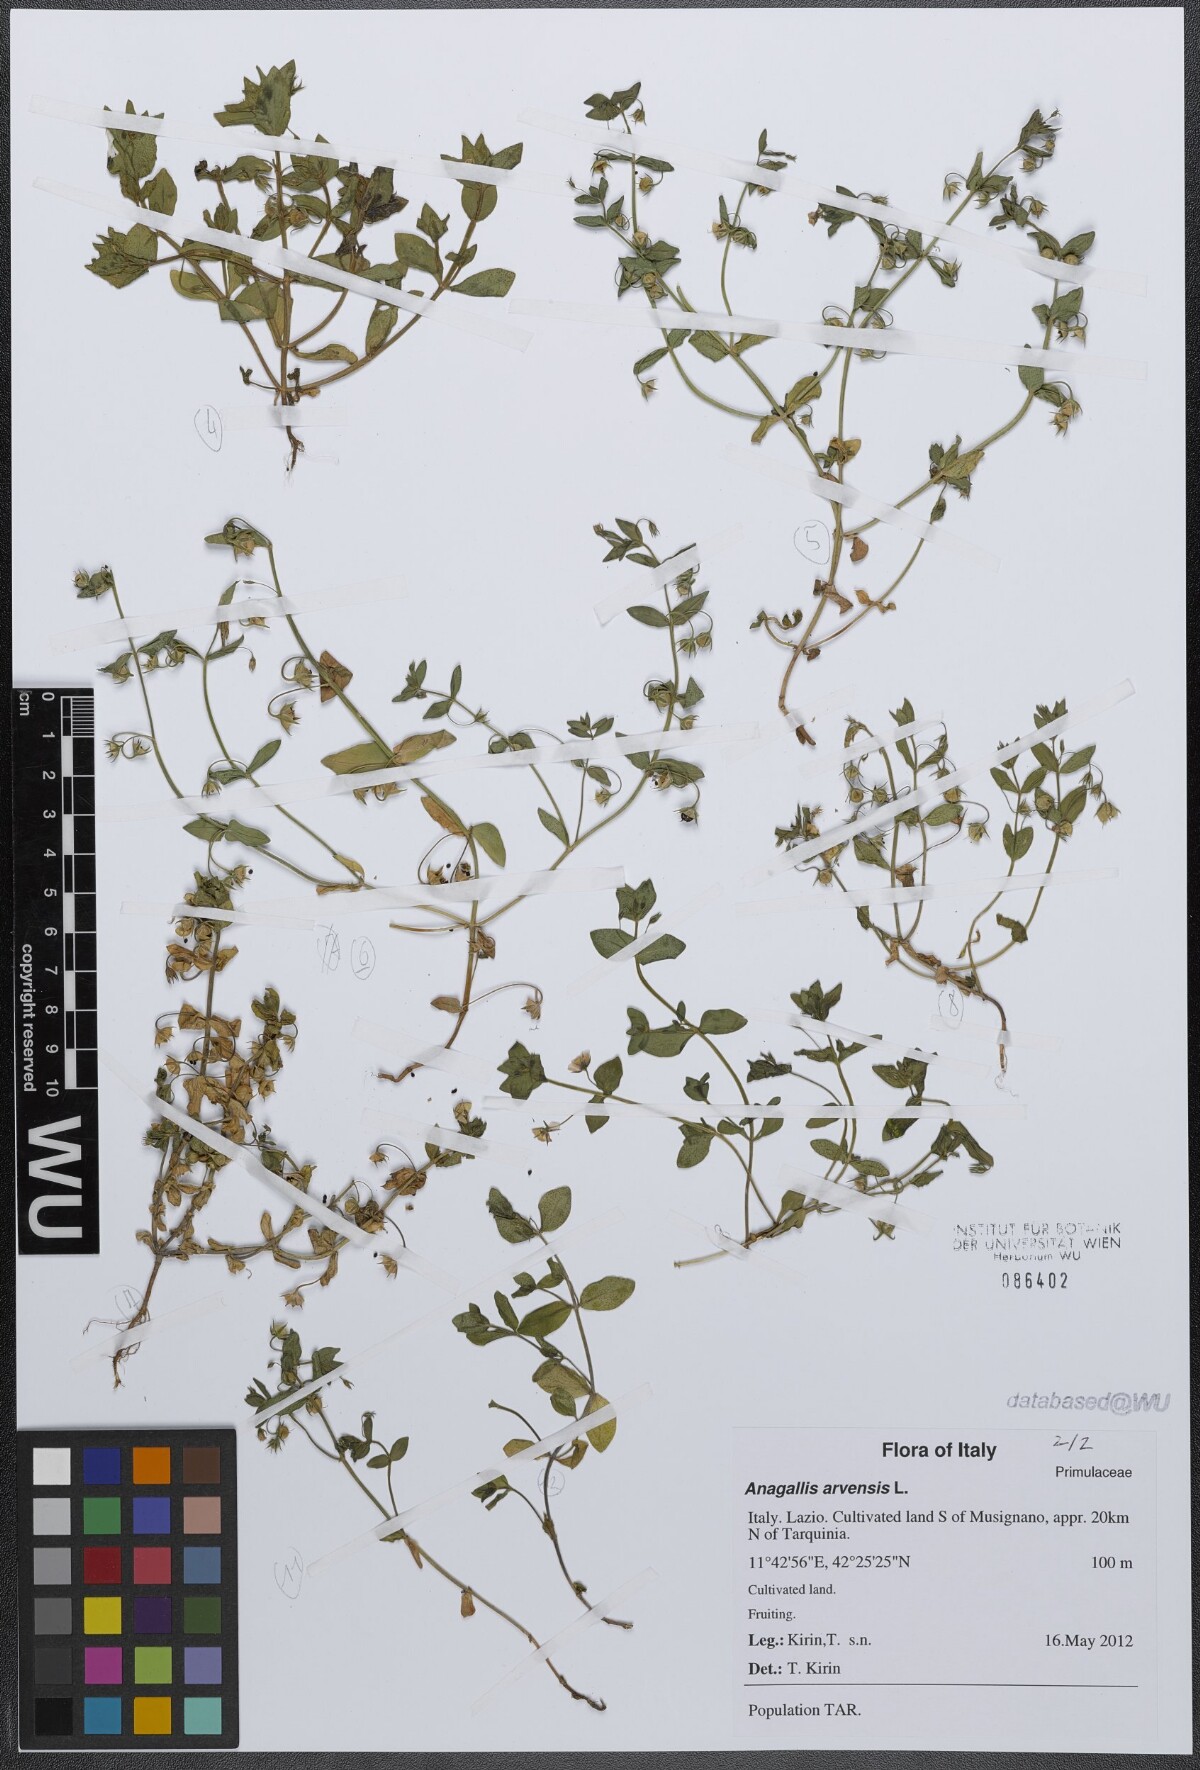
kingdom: Plantae
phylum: Tracheophyta
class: Magnoliopsida
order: Ericales
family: Primulaceae
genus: Lysimachia
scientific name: Lysimachia arvensis
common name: Scarlet pimpernel
